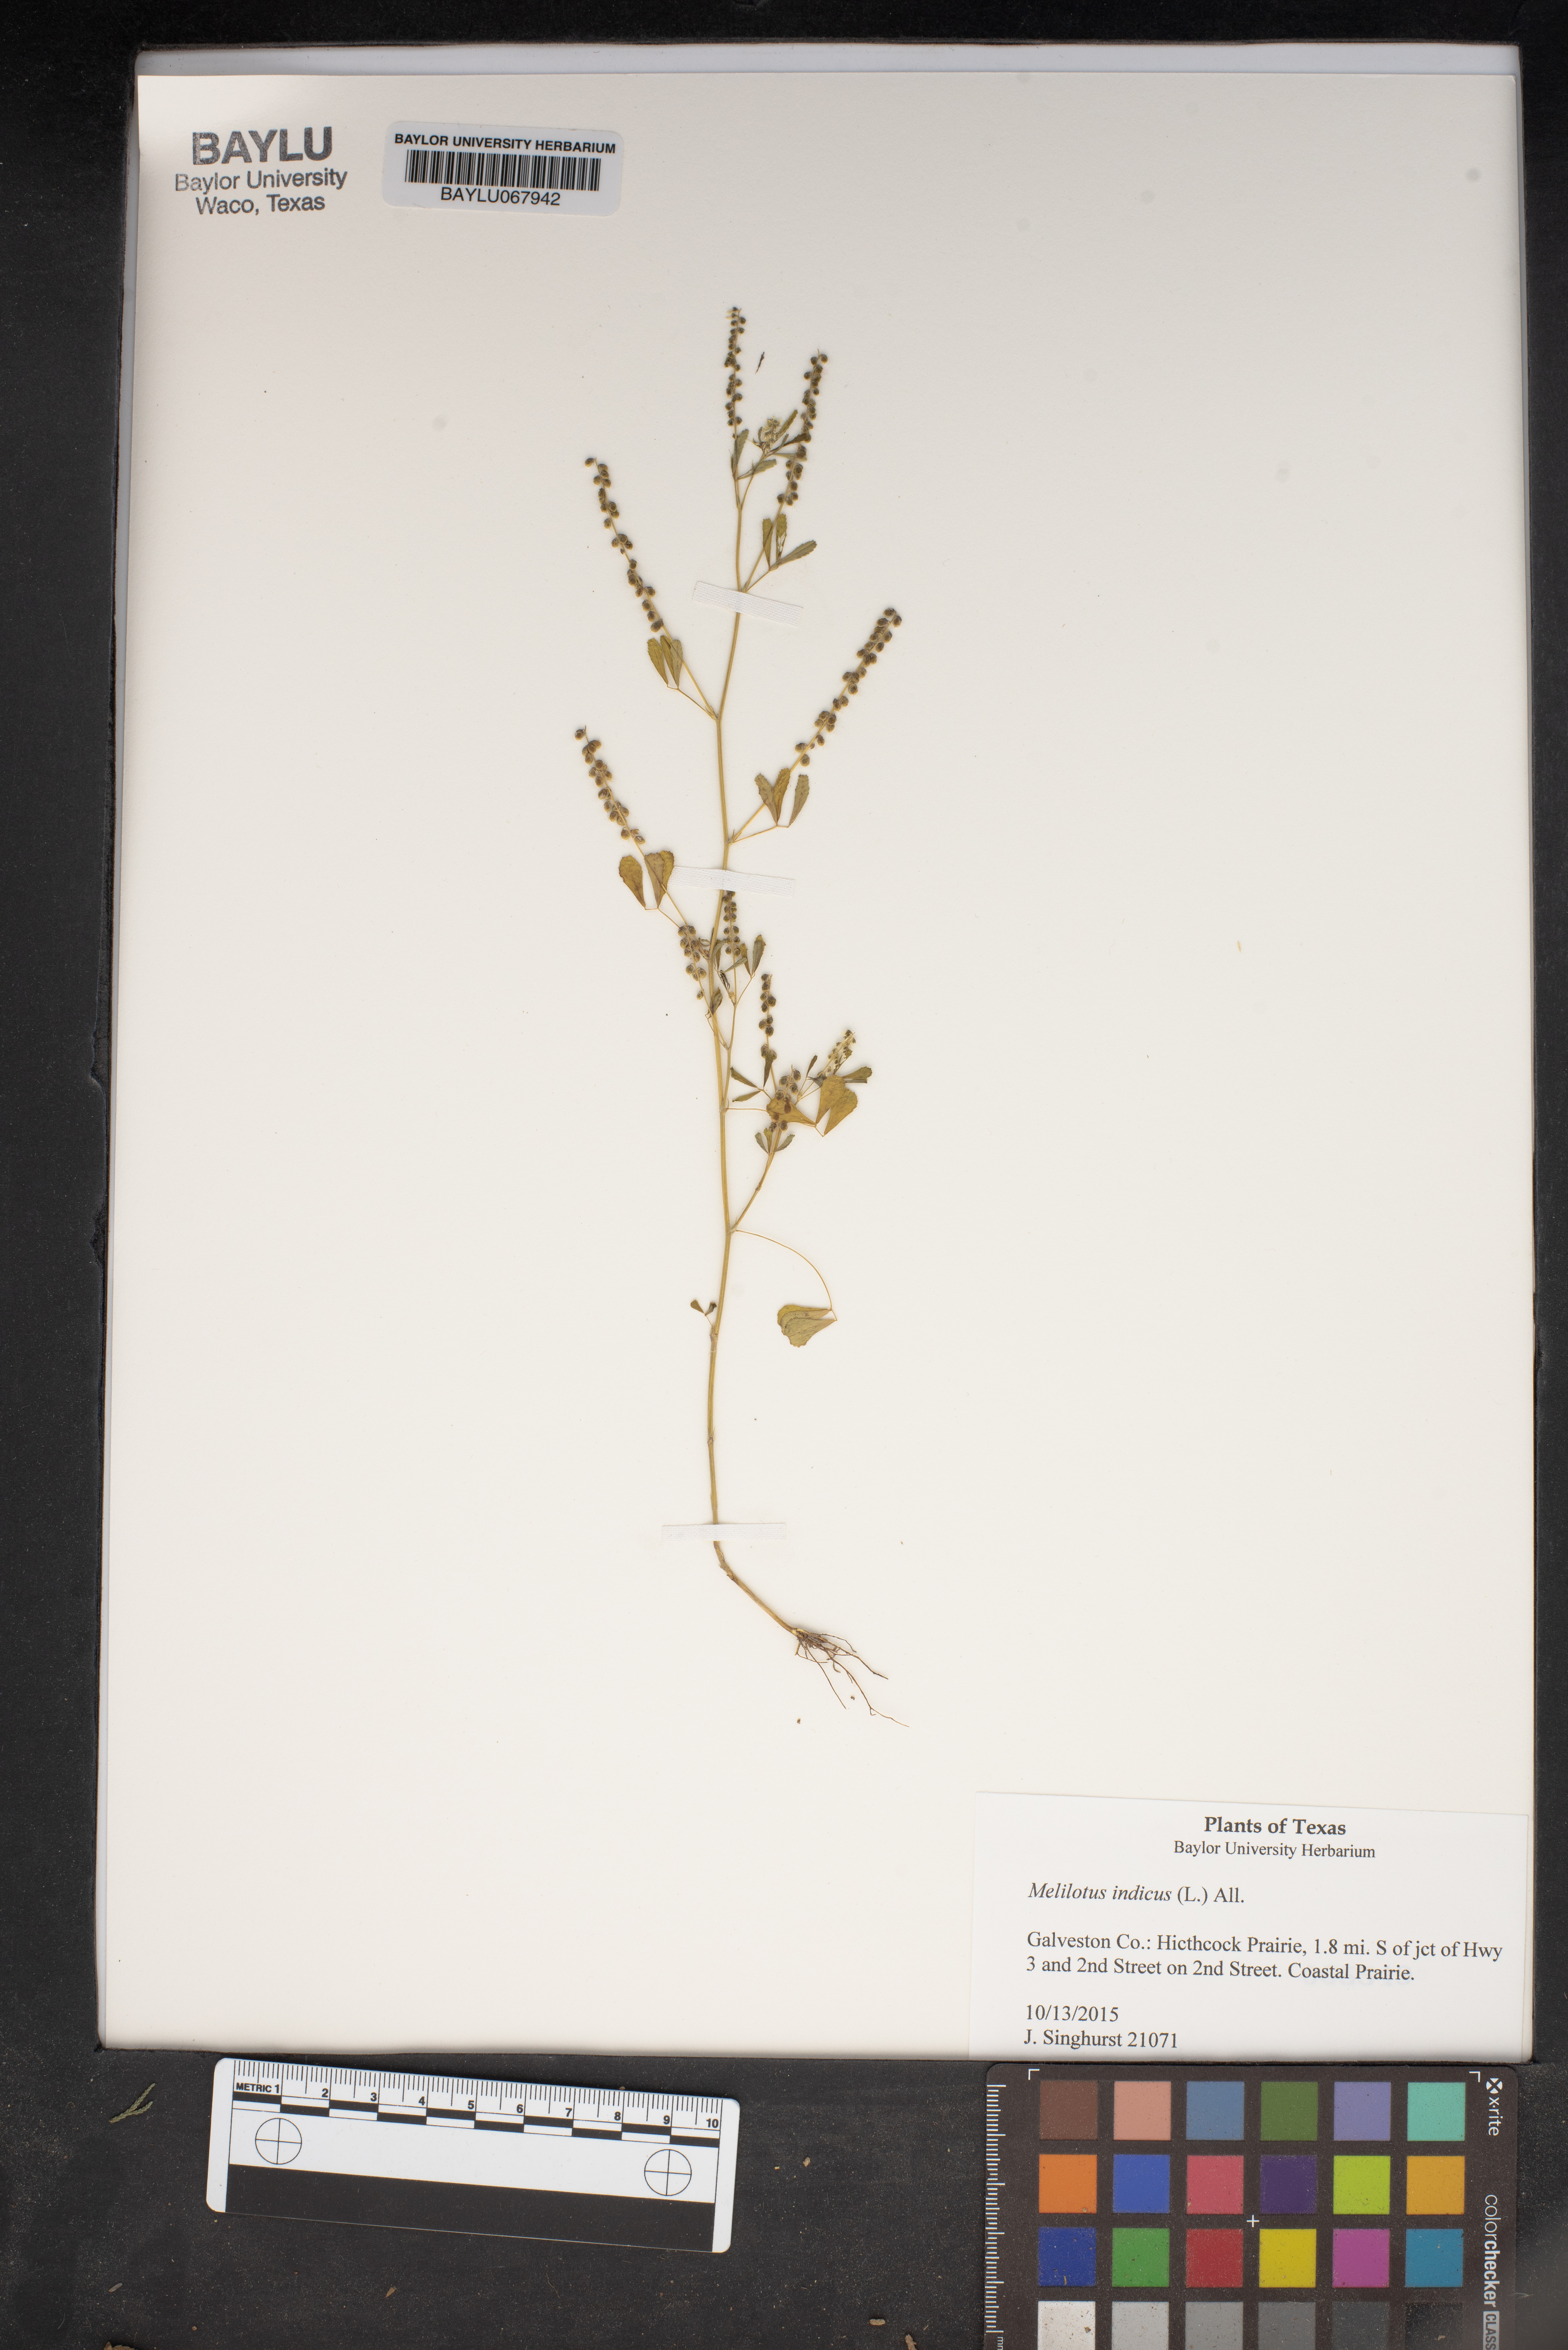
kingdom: Plantae
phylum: Tracheophyta
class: Magnoliopsida
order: Fabales
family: Fabaceae
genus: Melilotus
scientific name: Melilotus indicus
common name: Small melilot
